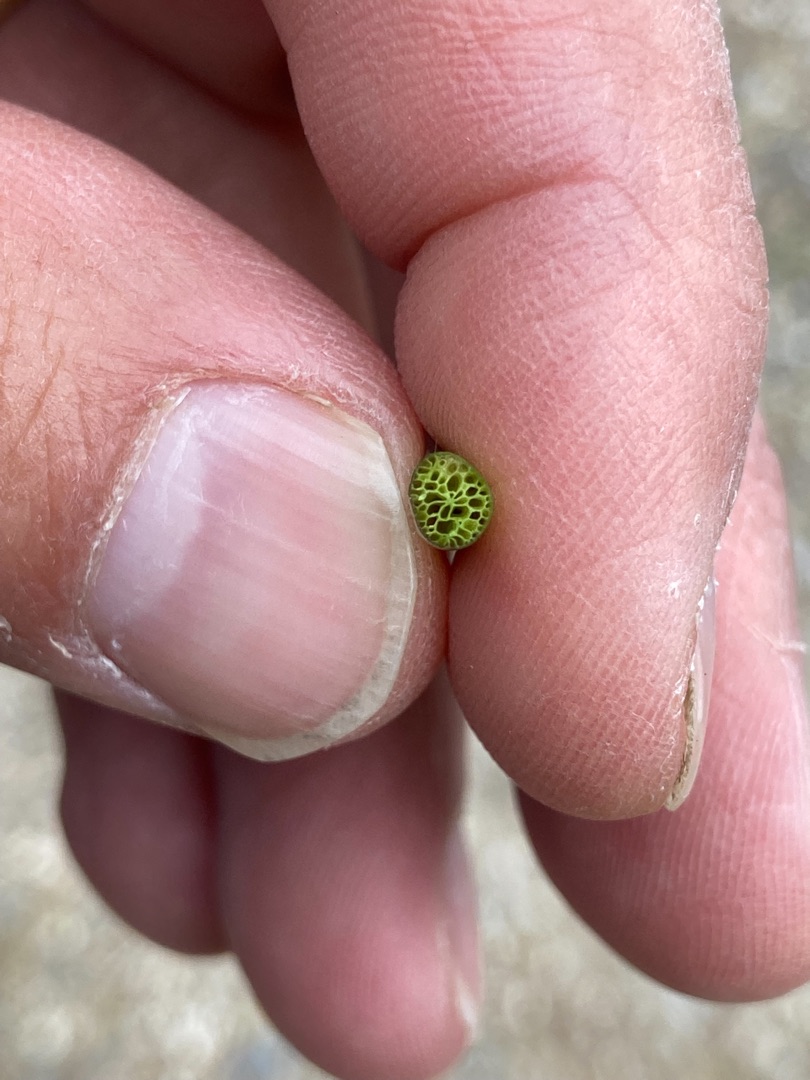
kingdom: Plantae
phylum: Tracheophyta
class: Magnoliopsida
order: Lamiales
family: Plantaginaceae
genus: Littorella
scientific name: Littorella uniflora
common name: Strandbo
